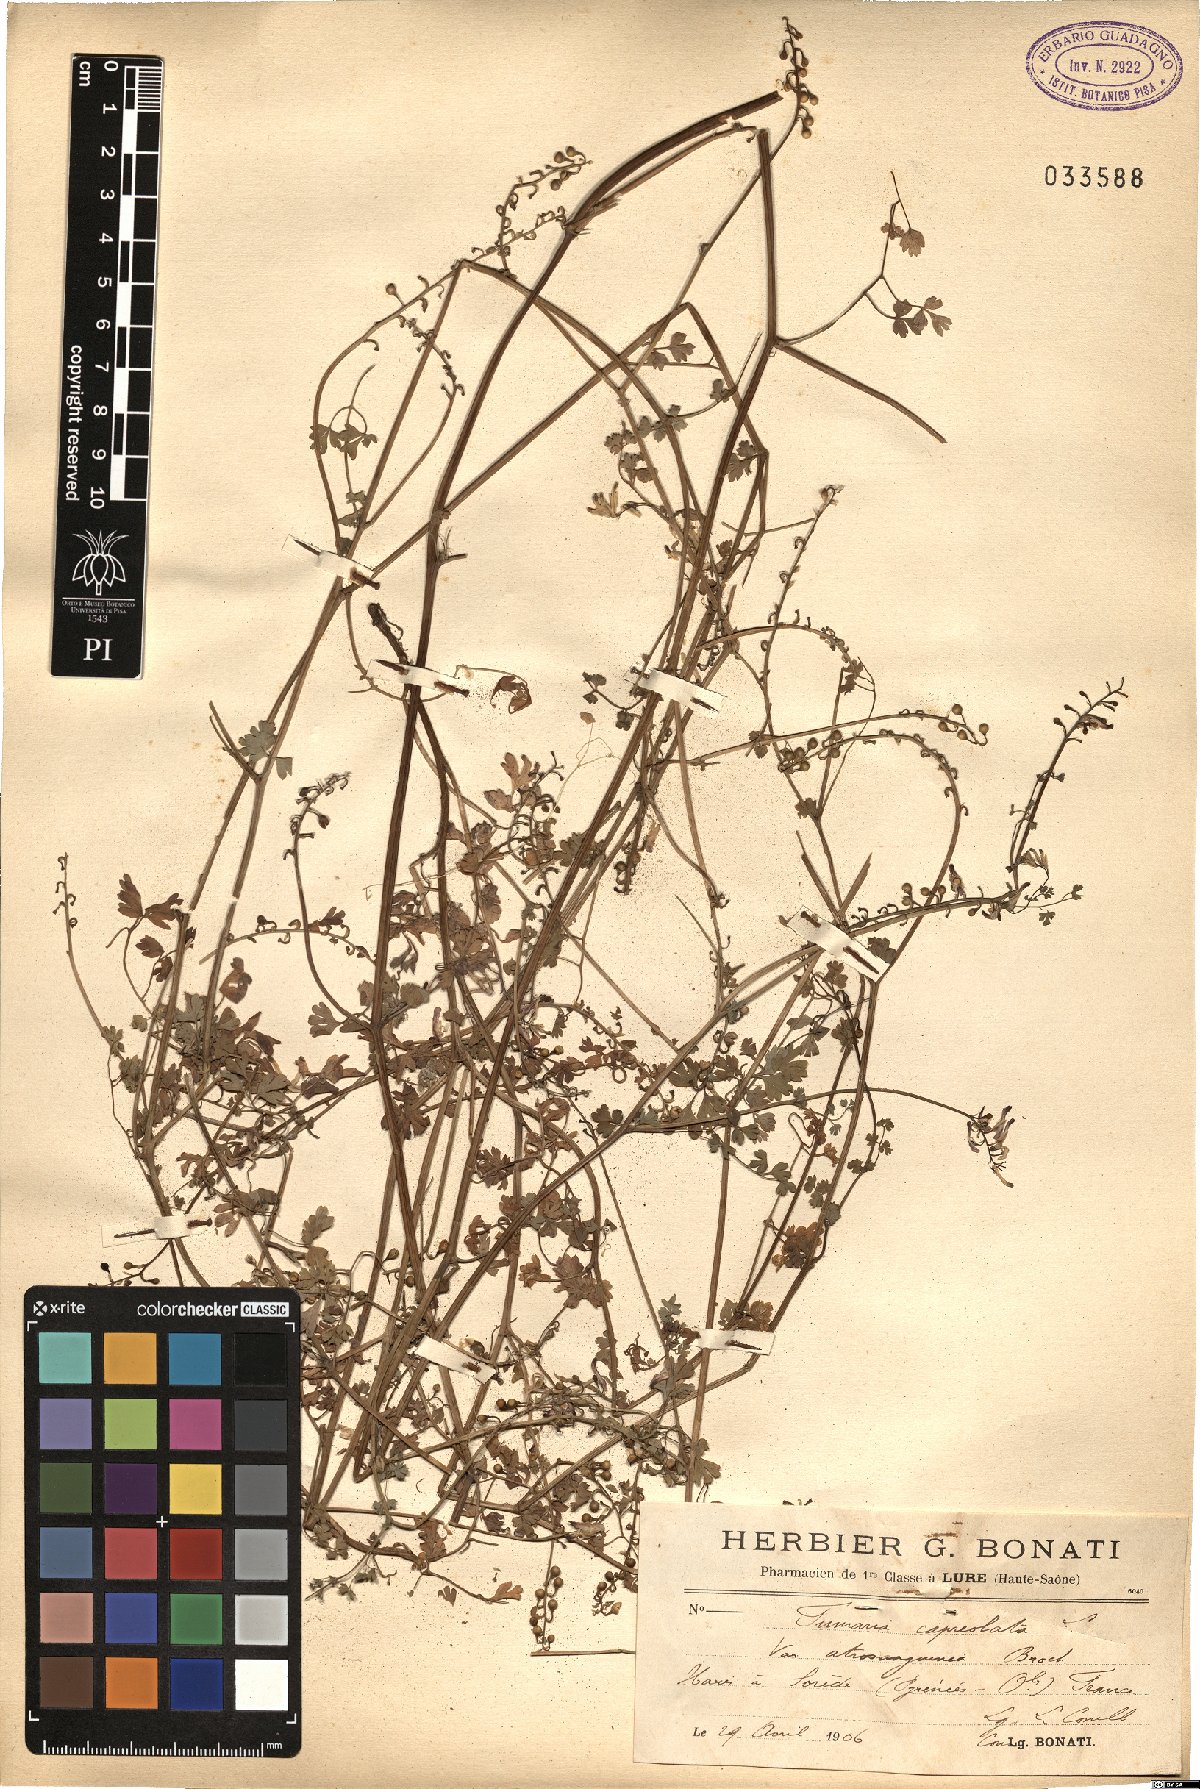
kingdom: Plantae
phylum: Tracheophyta
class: Magnoliopsida
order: Ranunculales
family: Papaveraceae
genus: Fumaria
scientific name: Fumaria capreolata
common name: White ramping-fumitory
